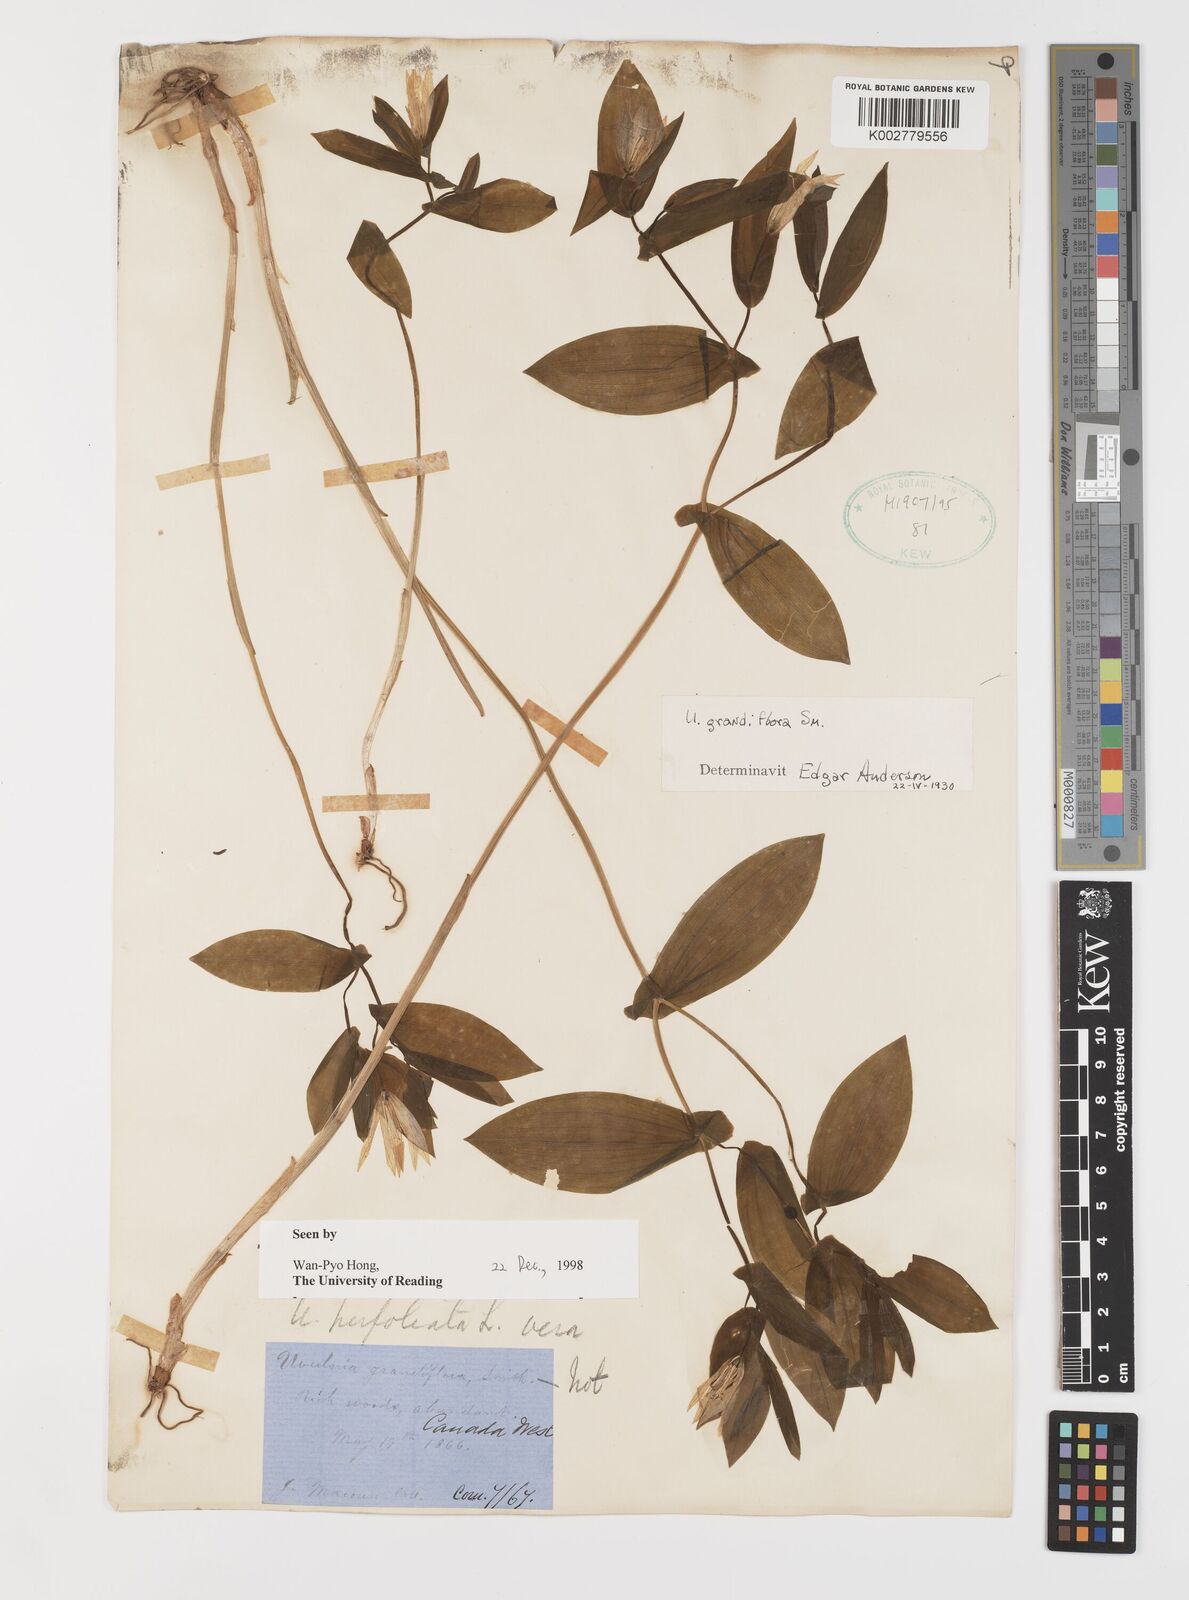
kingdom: Plantae
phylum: Tracheophyta
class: Liliopsida
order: Liliales
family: Colchicaceae
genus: Uvularia
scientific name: Uvularia grandiflora
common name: Bellwort
